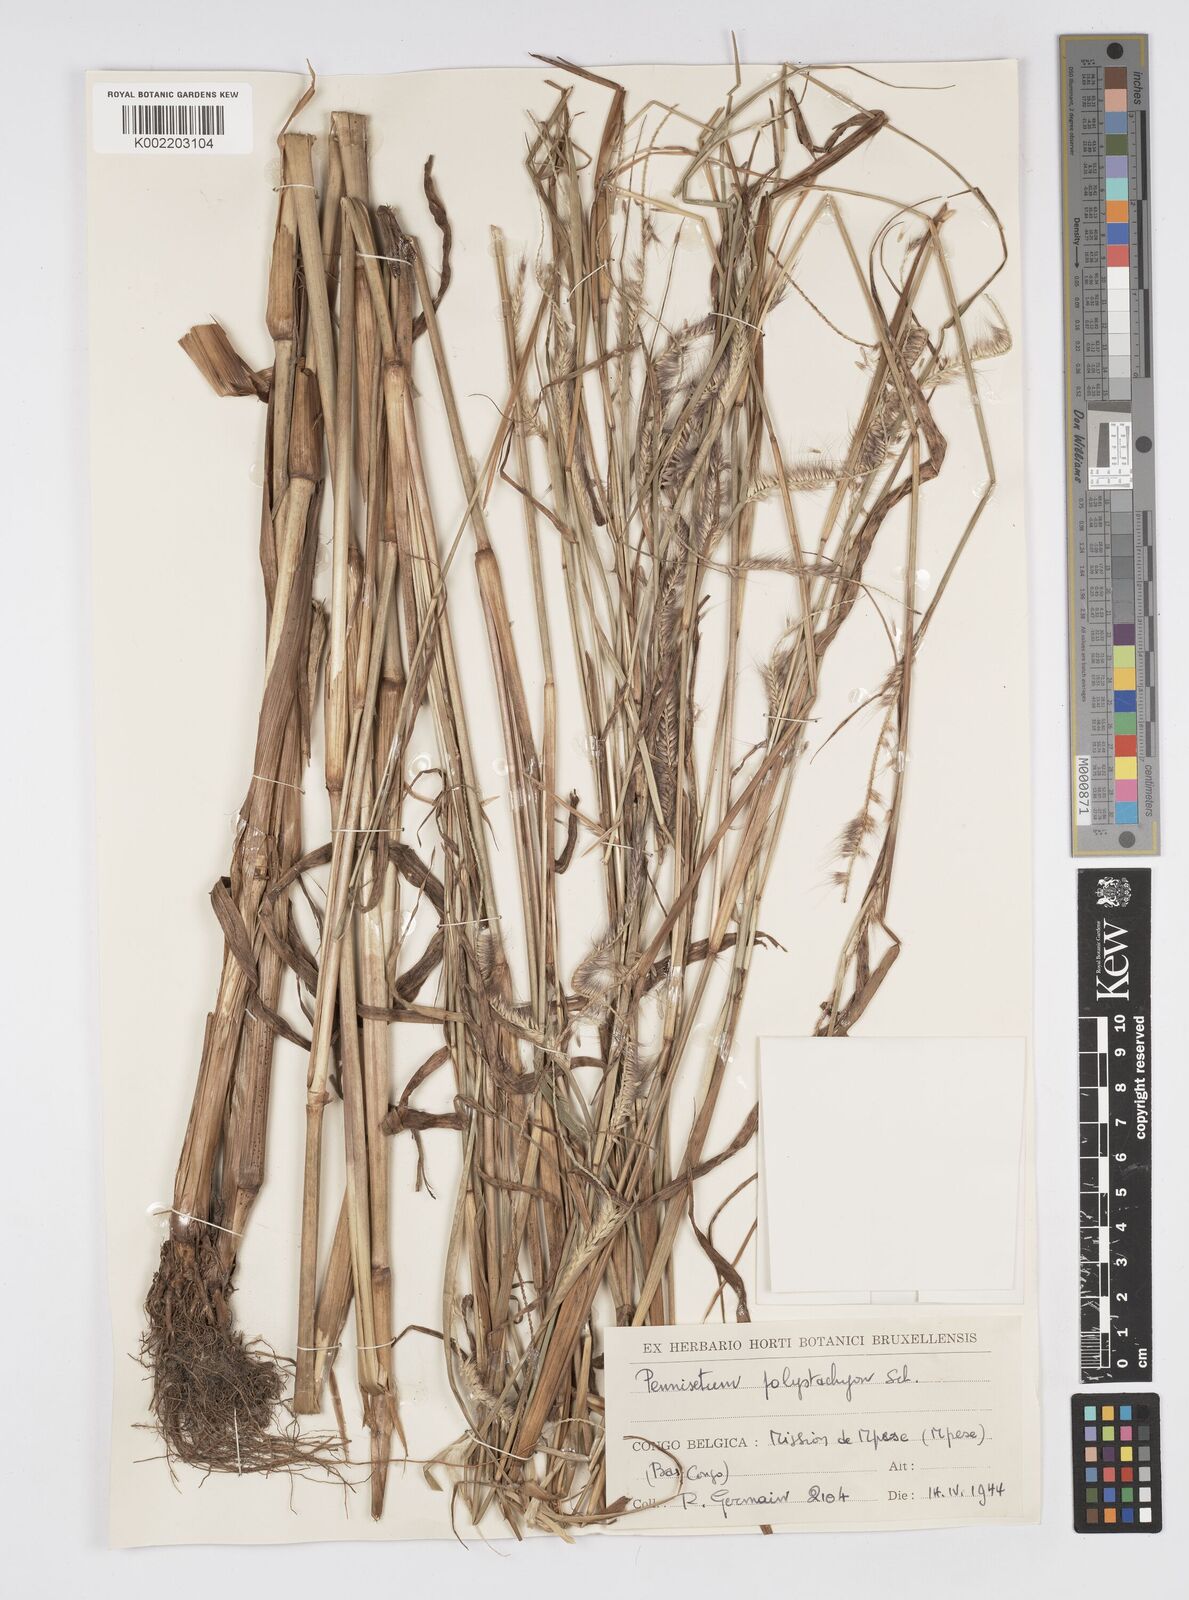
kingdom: Plantae
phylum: Tracheophyta
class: Liliopsida
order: Poales
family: Poaceae
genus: Setaria
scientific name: Setaria parviflora
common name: Knotroot bristle-grass
